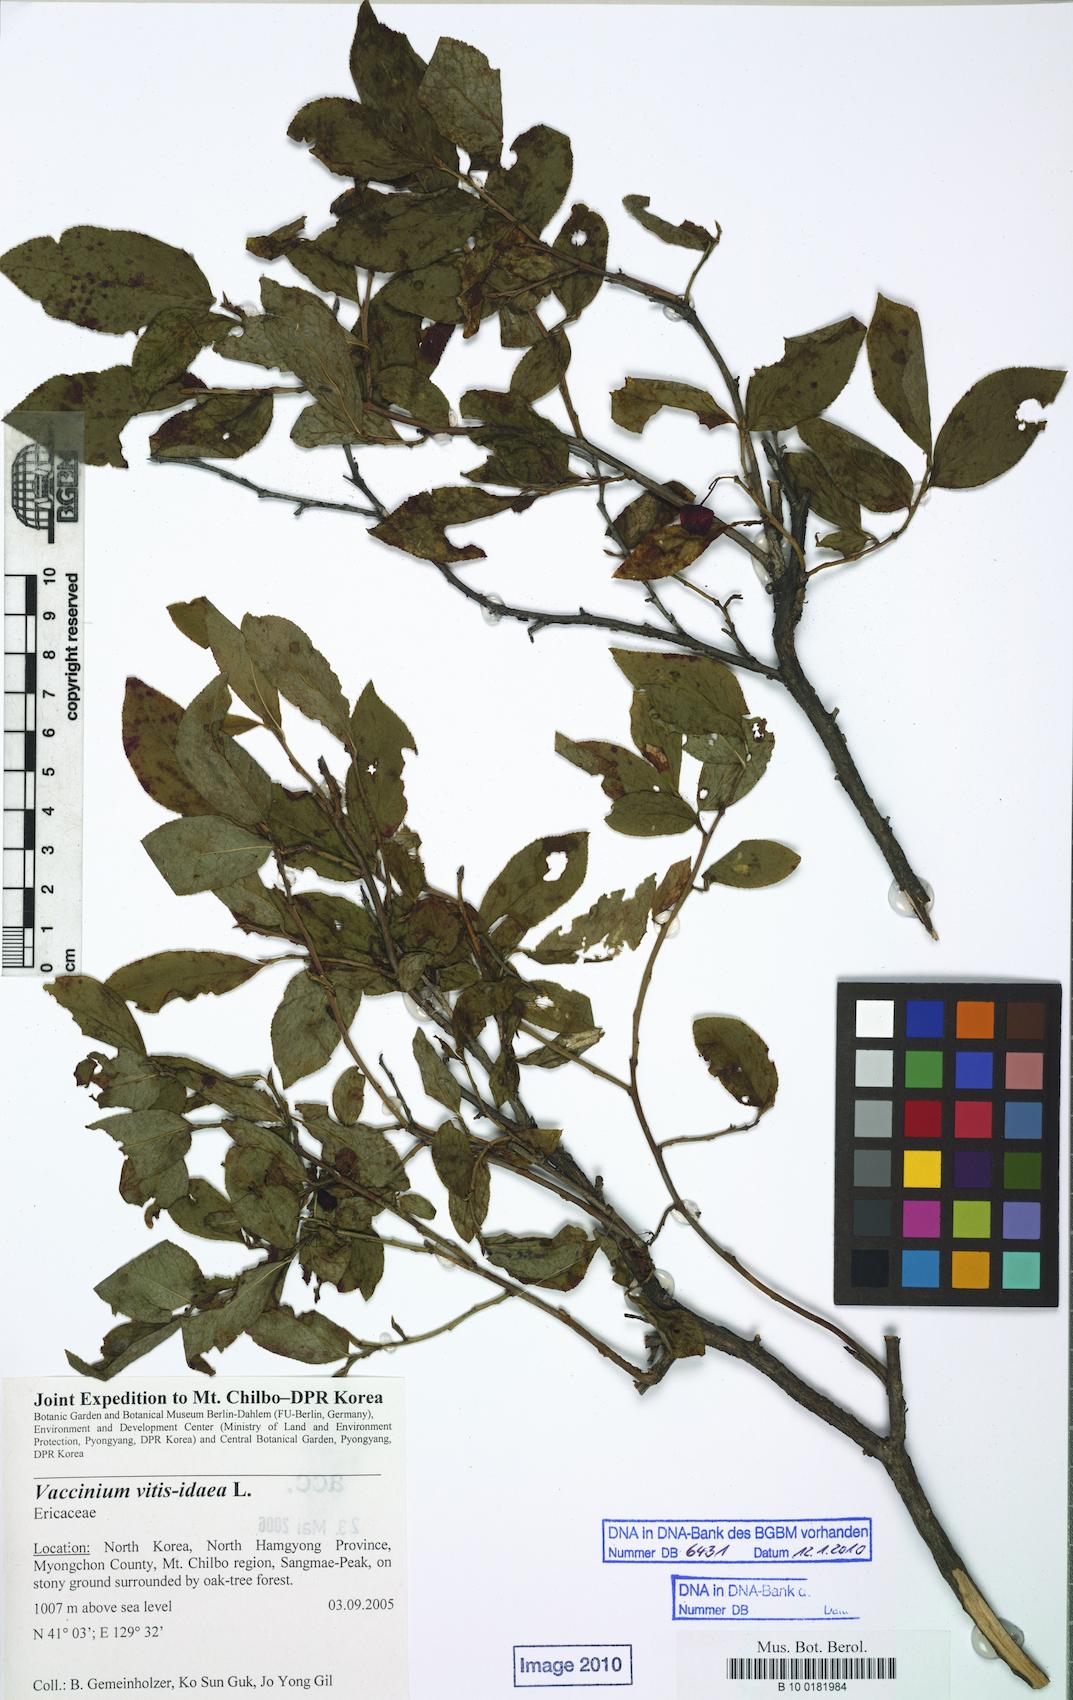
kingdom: Plantae
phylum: Tracheophyta
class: Magnoliopsida
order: Ericales
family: Ericaceae
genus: Vaccinium
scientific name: Vaccinium vitis-idaea
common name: Cowberry
